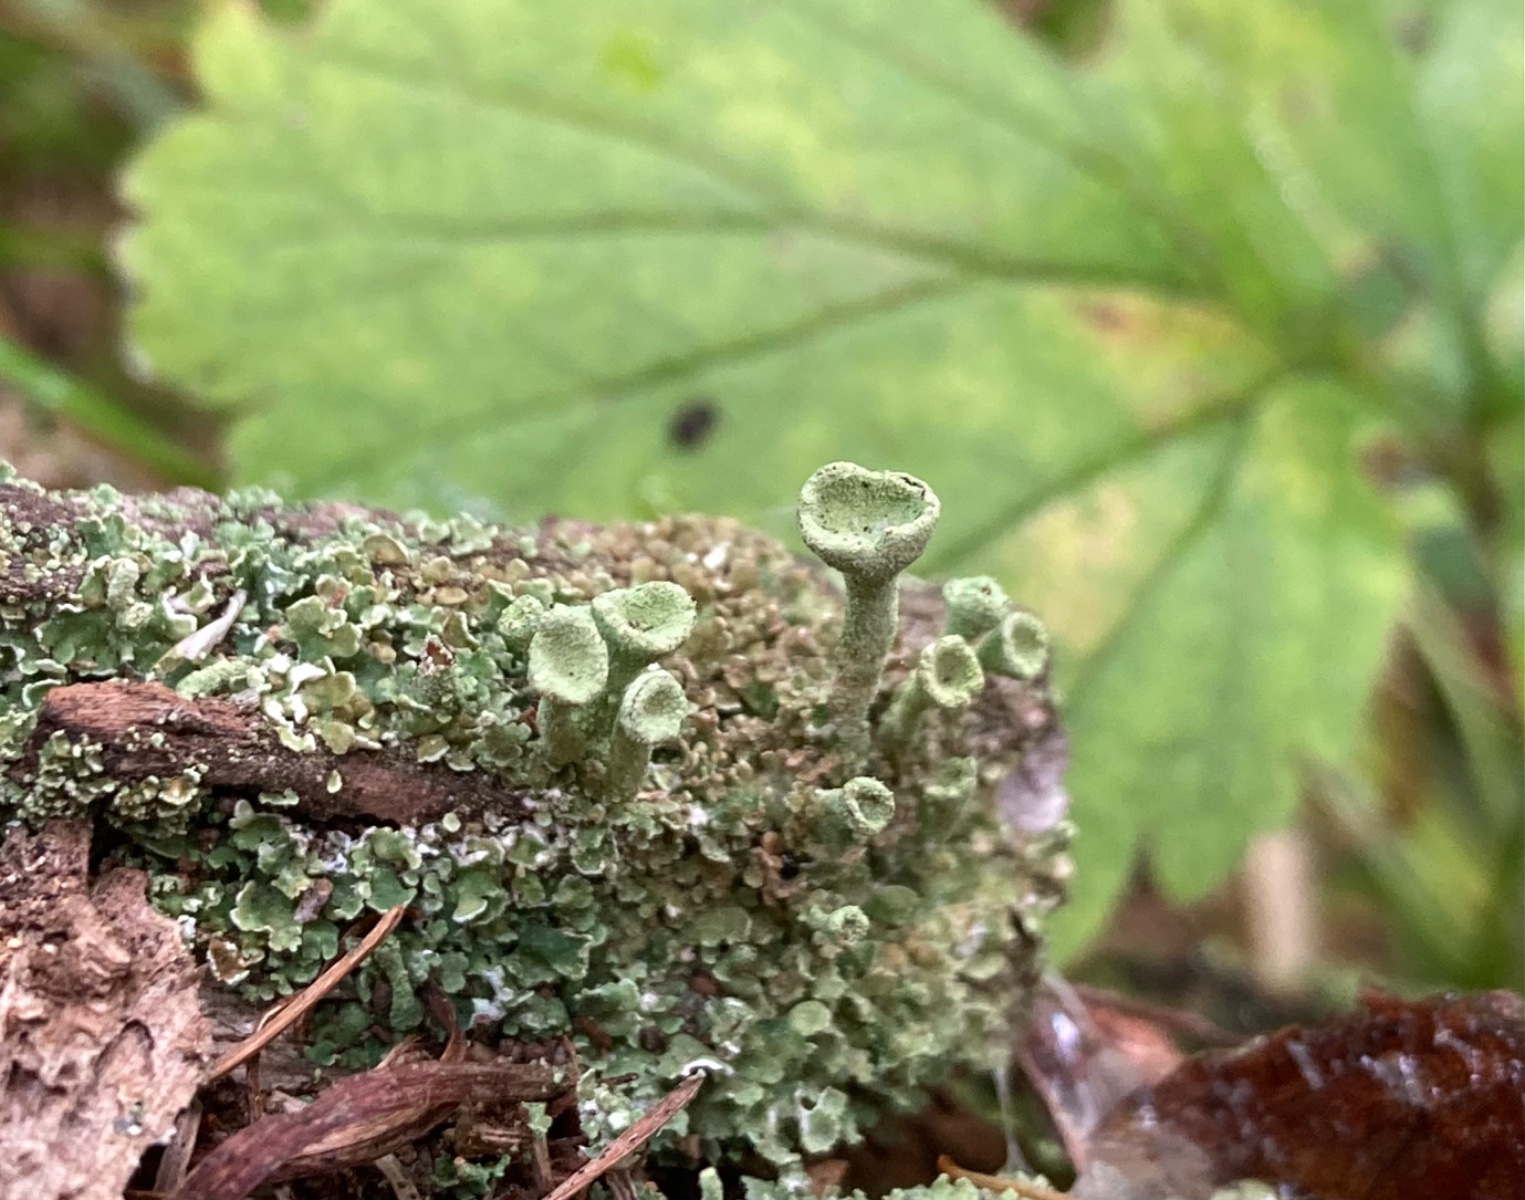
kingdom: Fungi
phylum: Ascomycota
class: Lecanoromycetes
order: Lecanorales
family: Cladoniaceae
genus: Cladonia
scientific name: Cladonia
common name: brungrøn bægerlav
